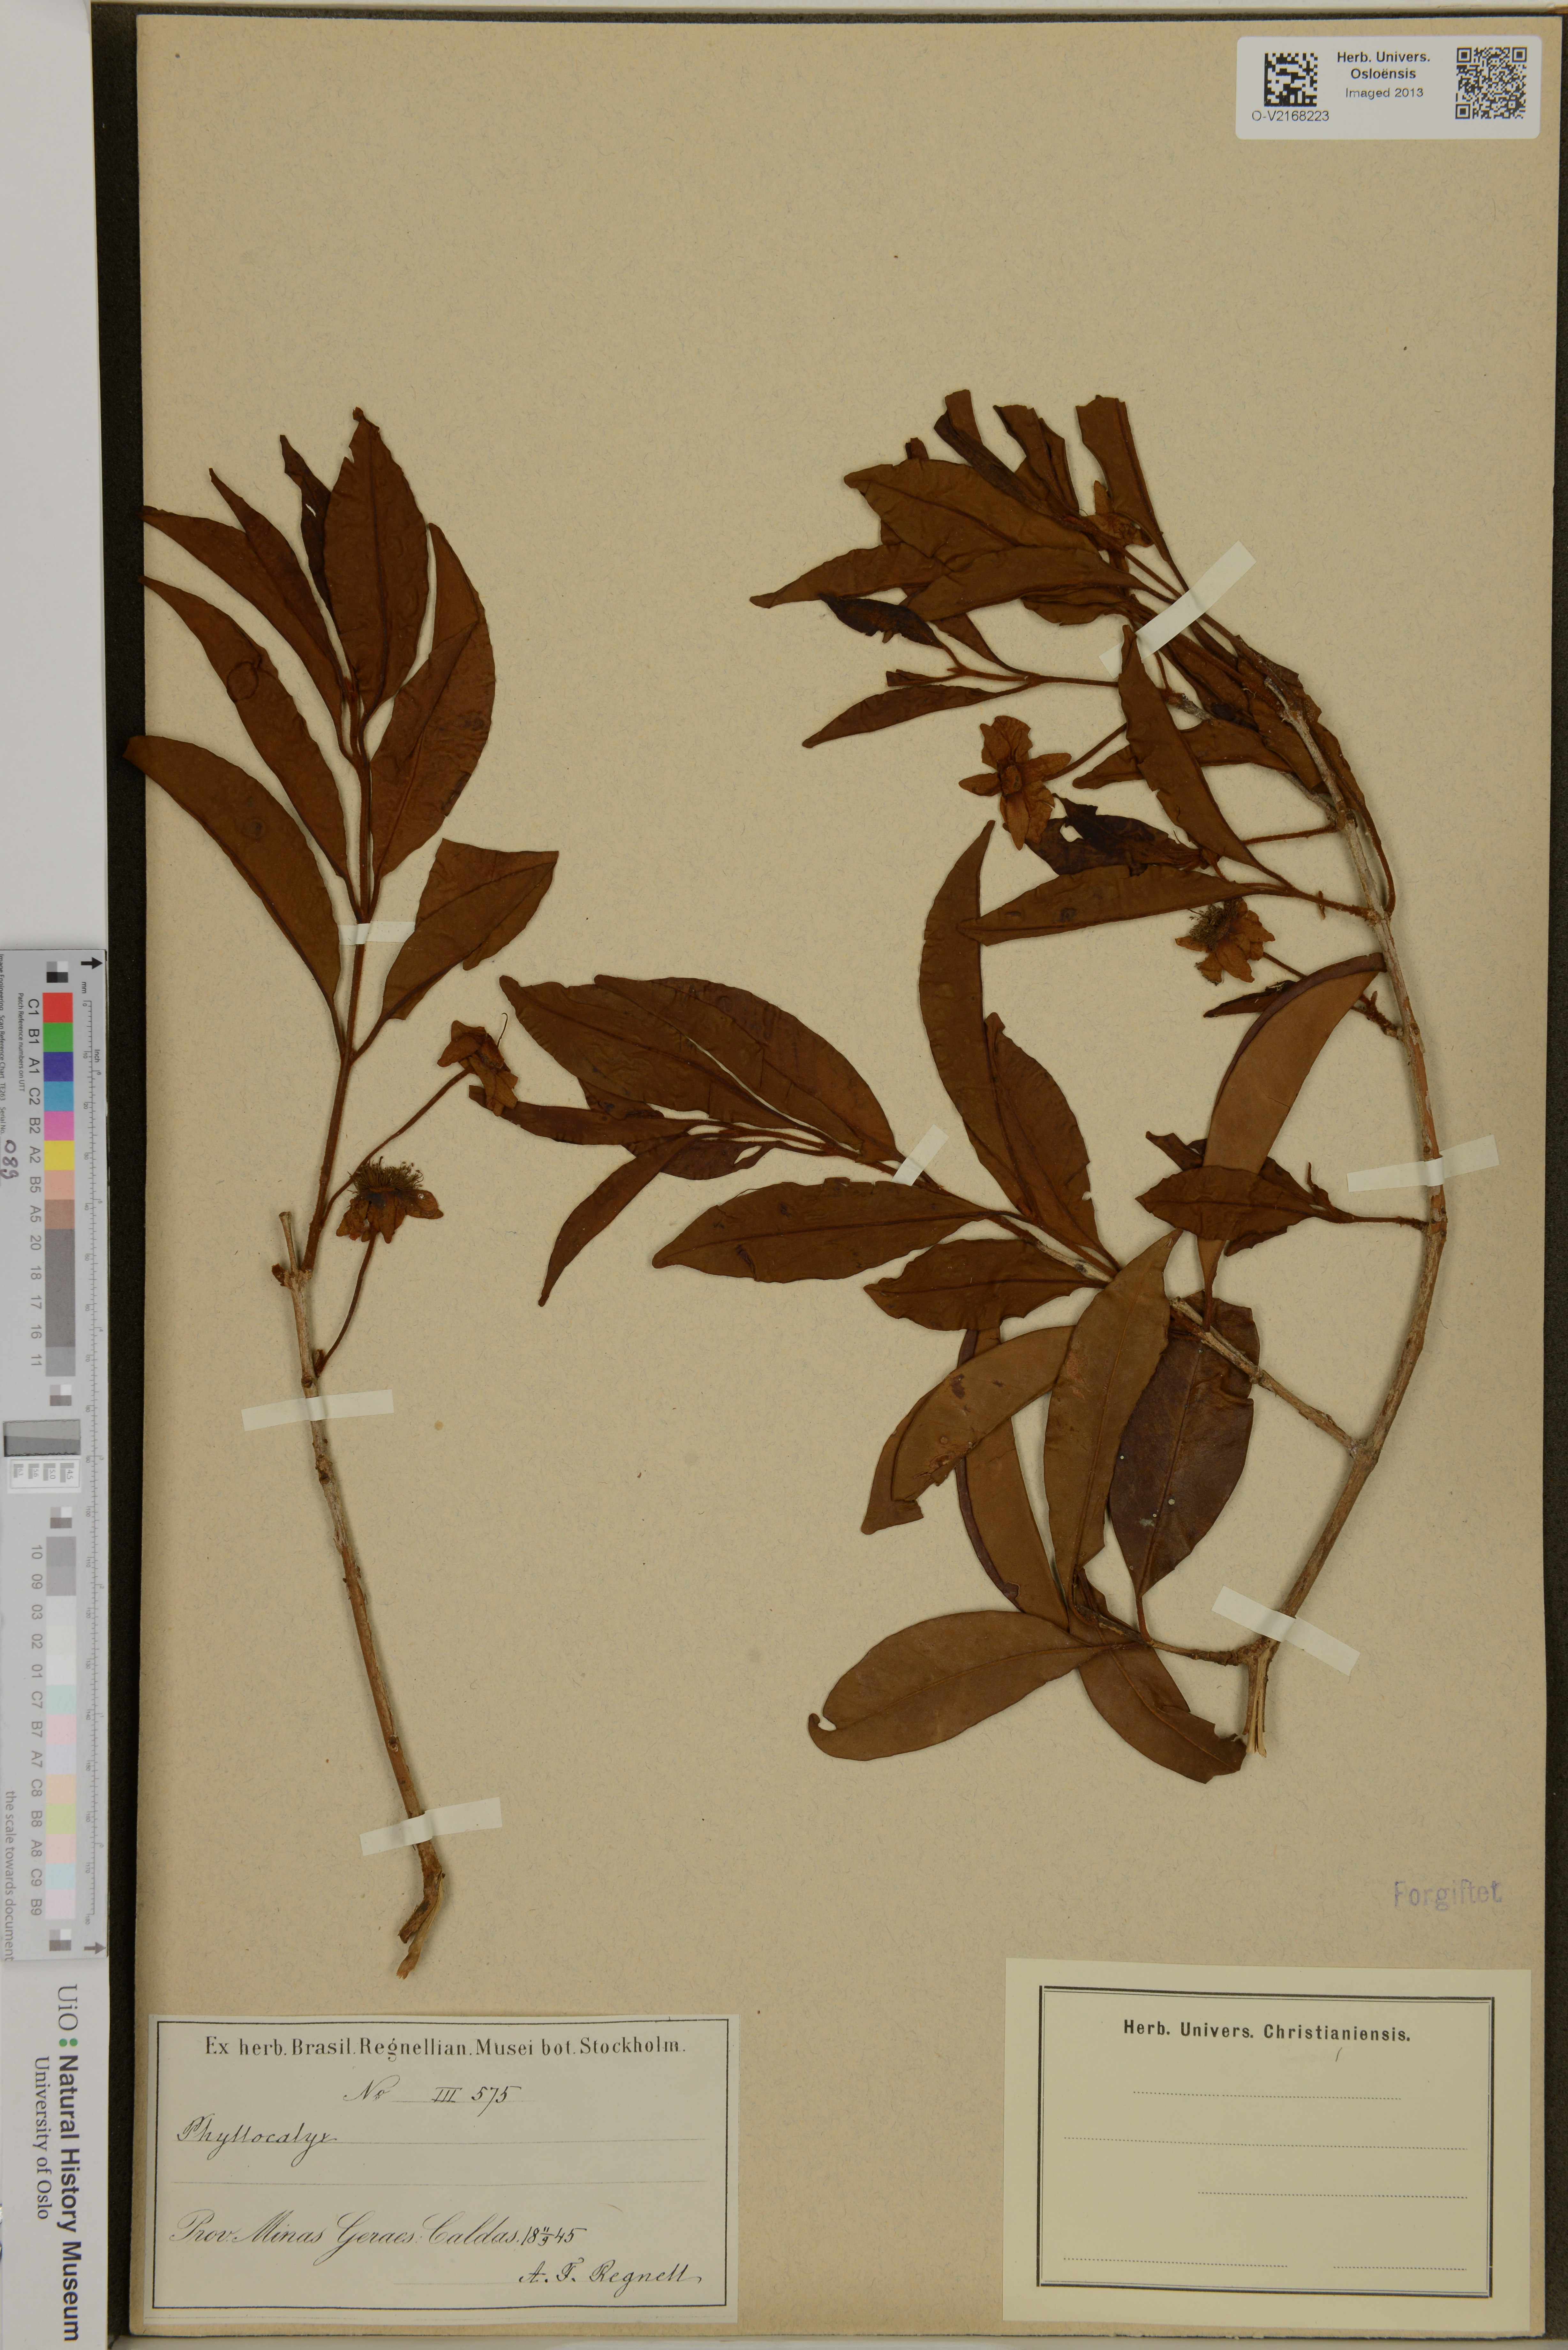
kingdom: Plantae
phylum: Tracheophyta
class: Magnoliopsida
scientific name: Magnoliopsida
